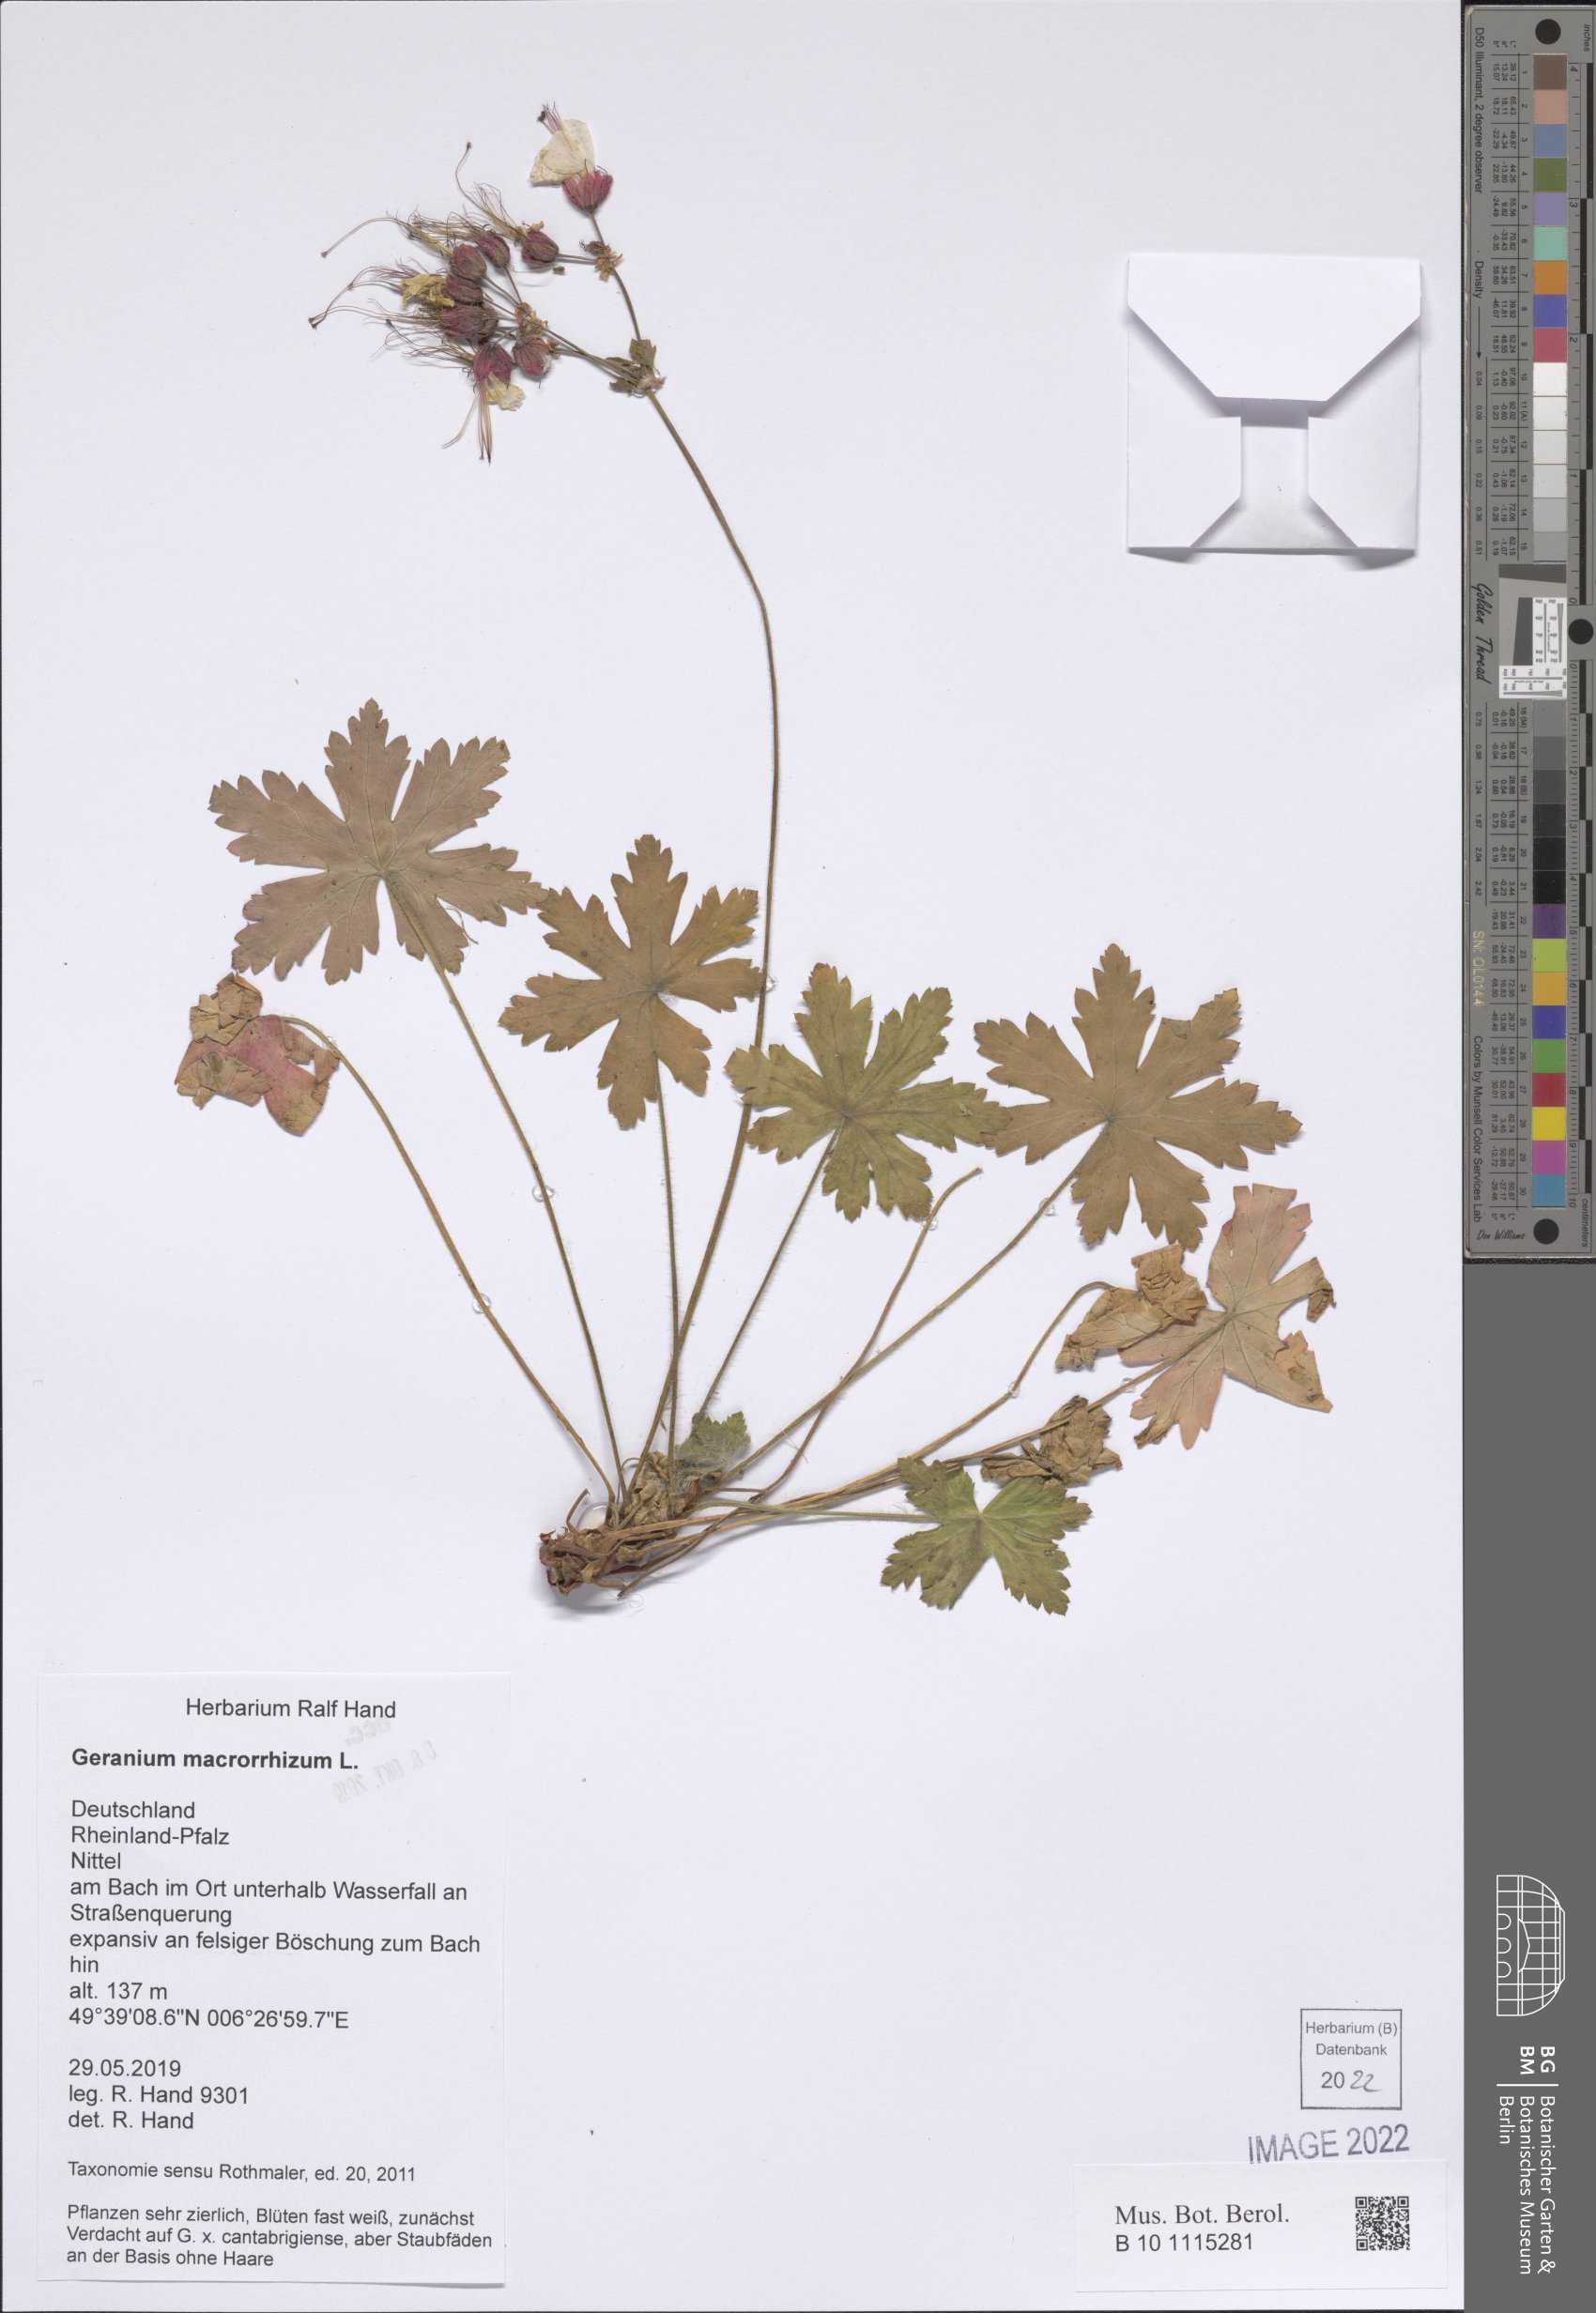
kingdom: Plantae
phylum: Tracheophyta
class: Magnoliopsida
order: Geraniales
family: Geraniaceae
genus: Geranium
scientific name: Geranium macrorrhizum
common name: Rock crane's-bill
